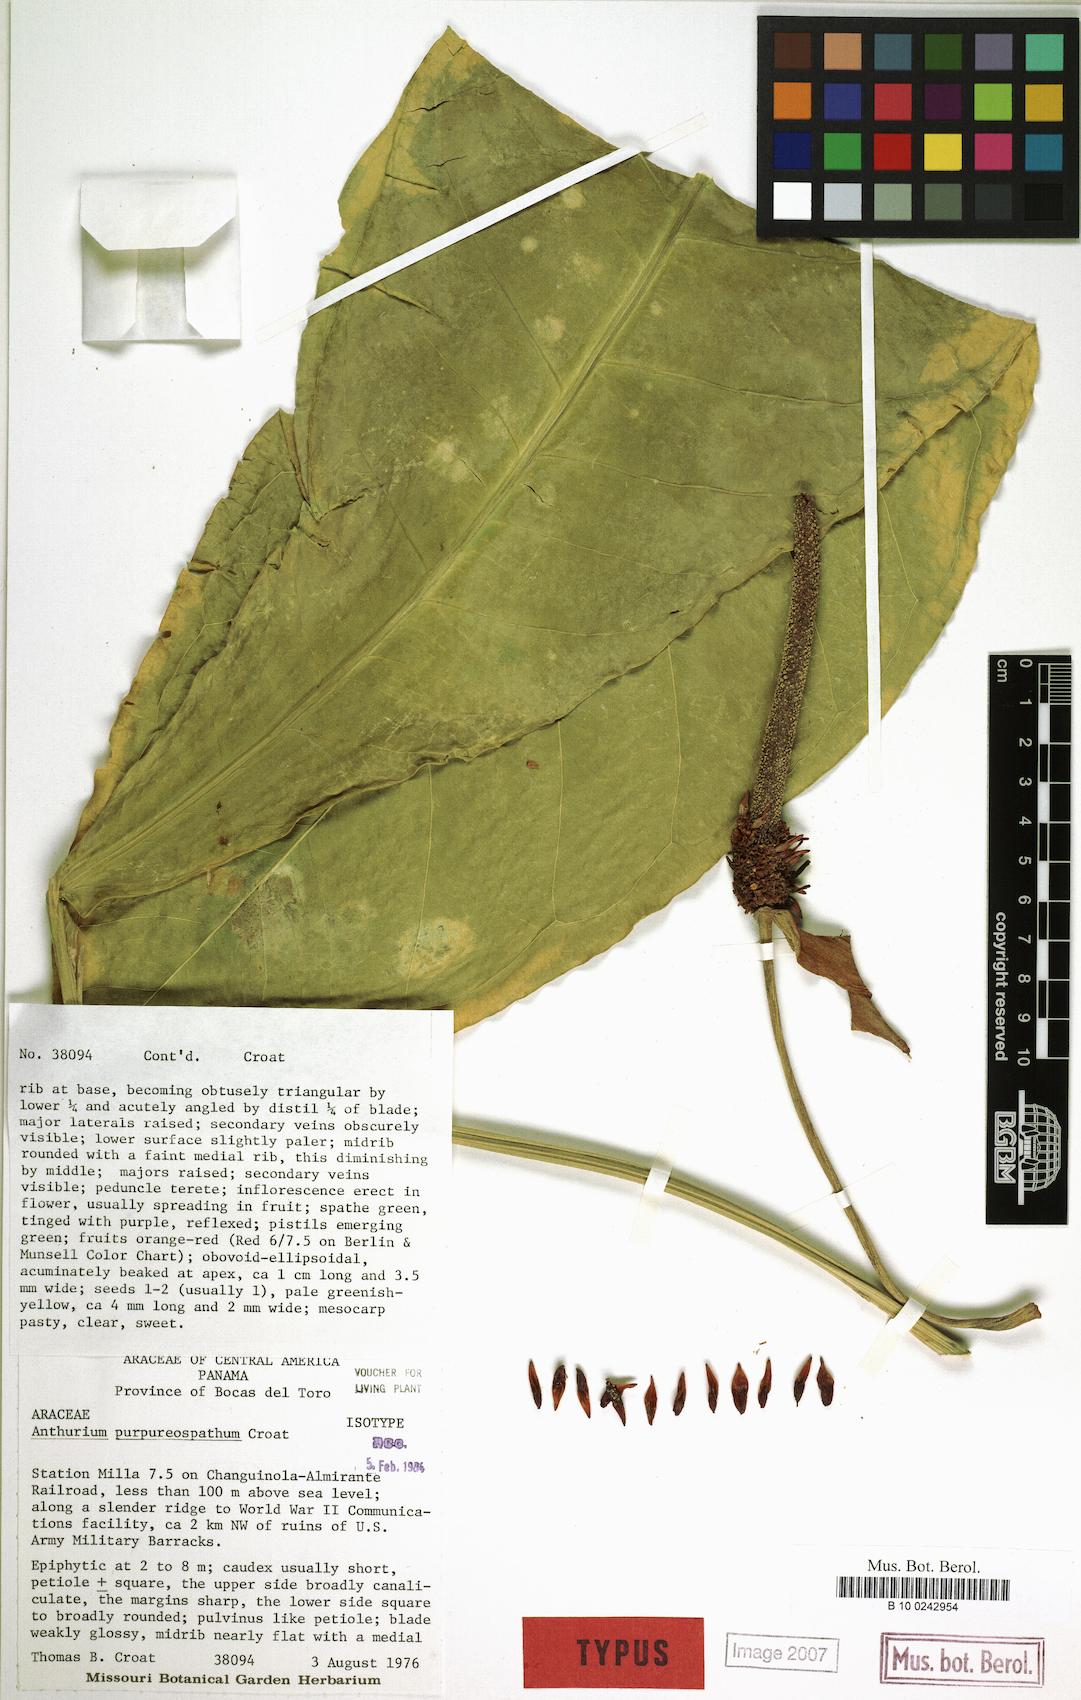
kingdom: Plantae
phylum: Tracheophyta
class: Liliopsida
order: Alismatales
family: Araceae
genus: Anthurium
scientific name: Anthurium purpureospathum
